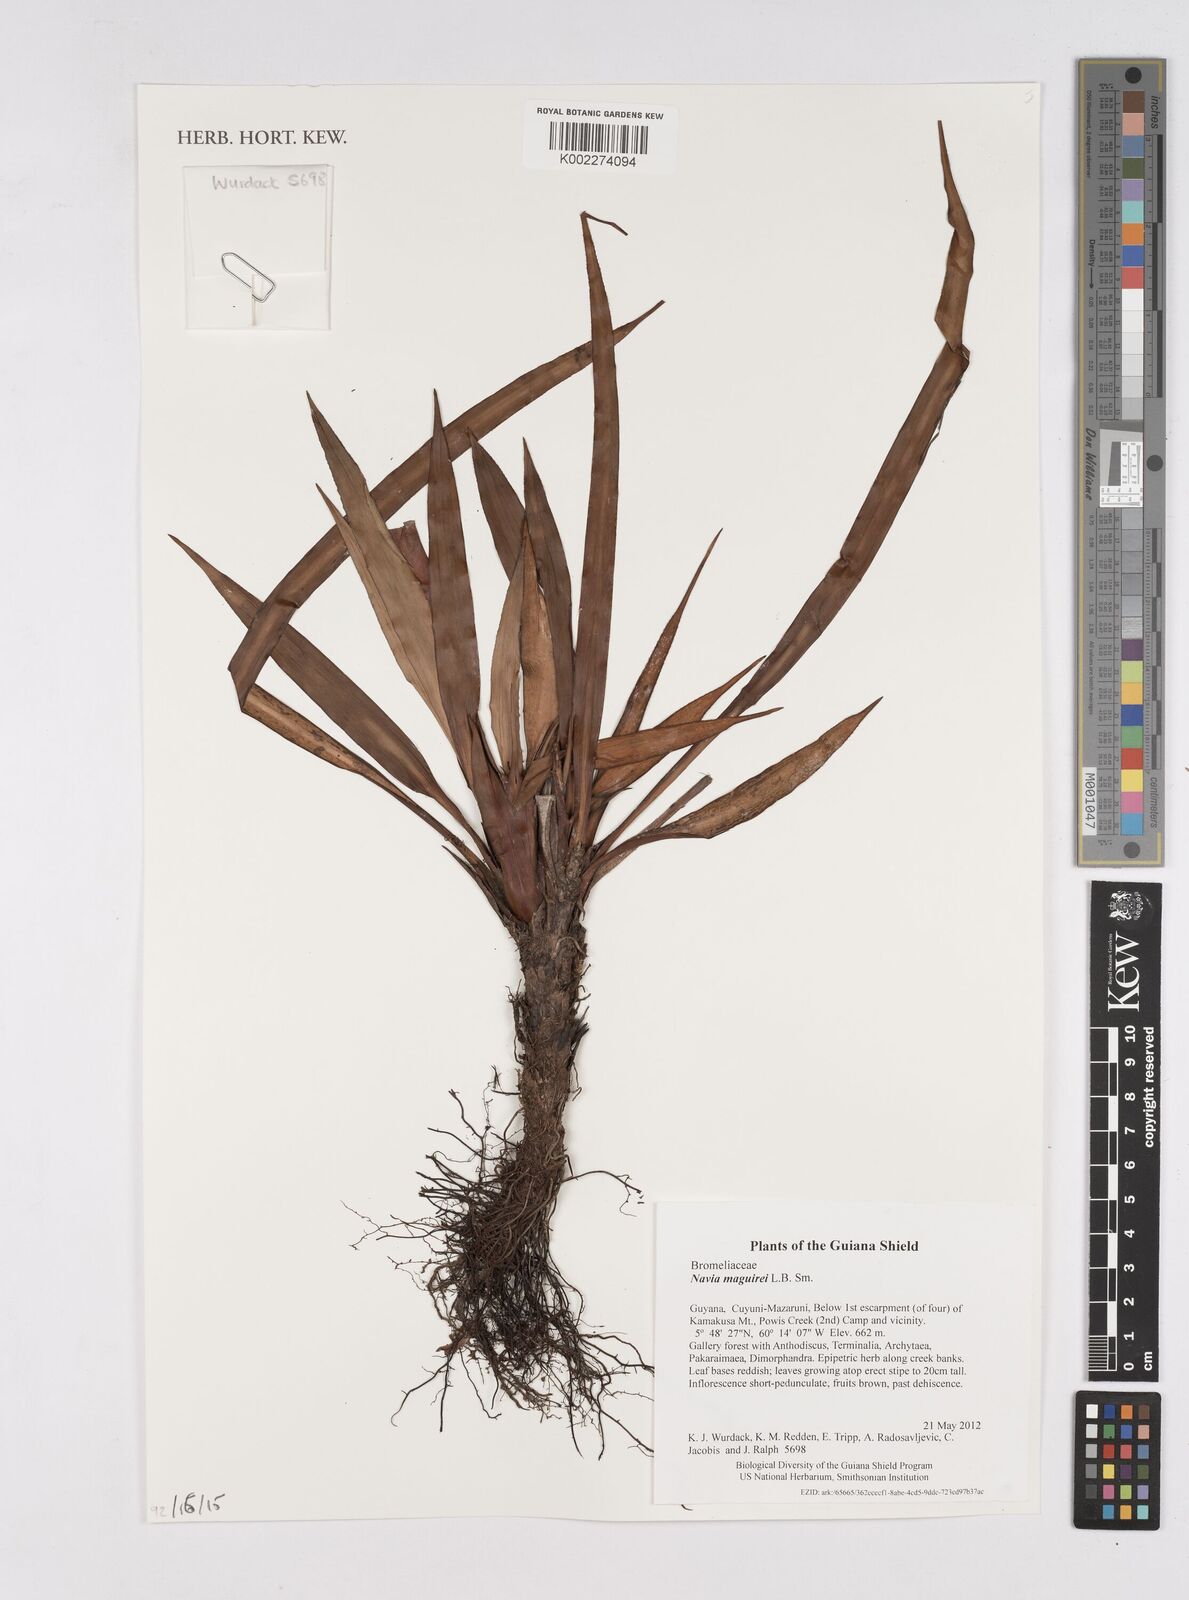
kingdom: Plantae
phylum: Tracheophyta
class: Liliopsida
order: Poales
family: Bromeliaceae
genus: Navia
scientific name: Navia maguirei
